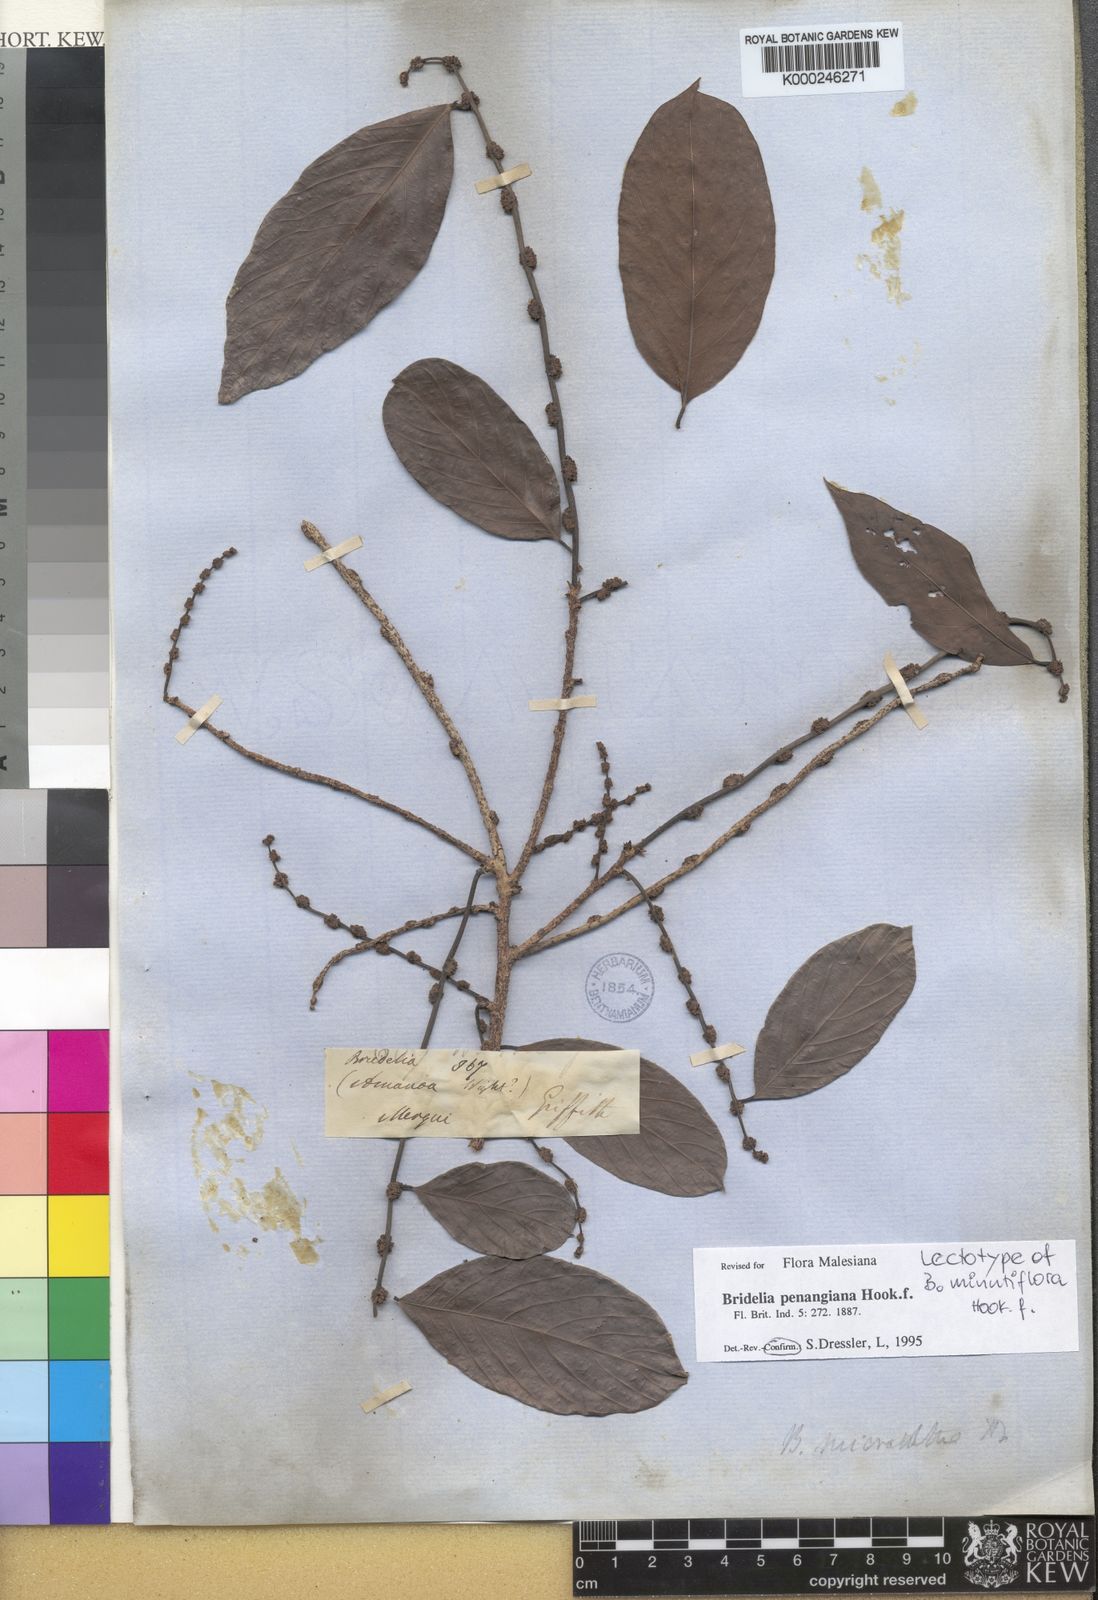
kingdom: Plantae
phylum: Tracheophyta
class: Magnoliopsida
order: Malpighiales
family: Phyllanthaceae
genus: Bridelia
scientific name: Bridelia insulana
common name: Grey-birch
